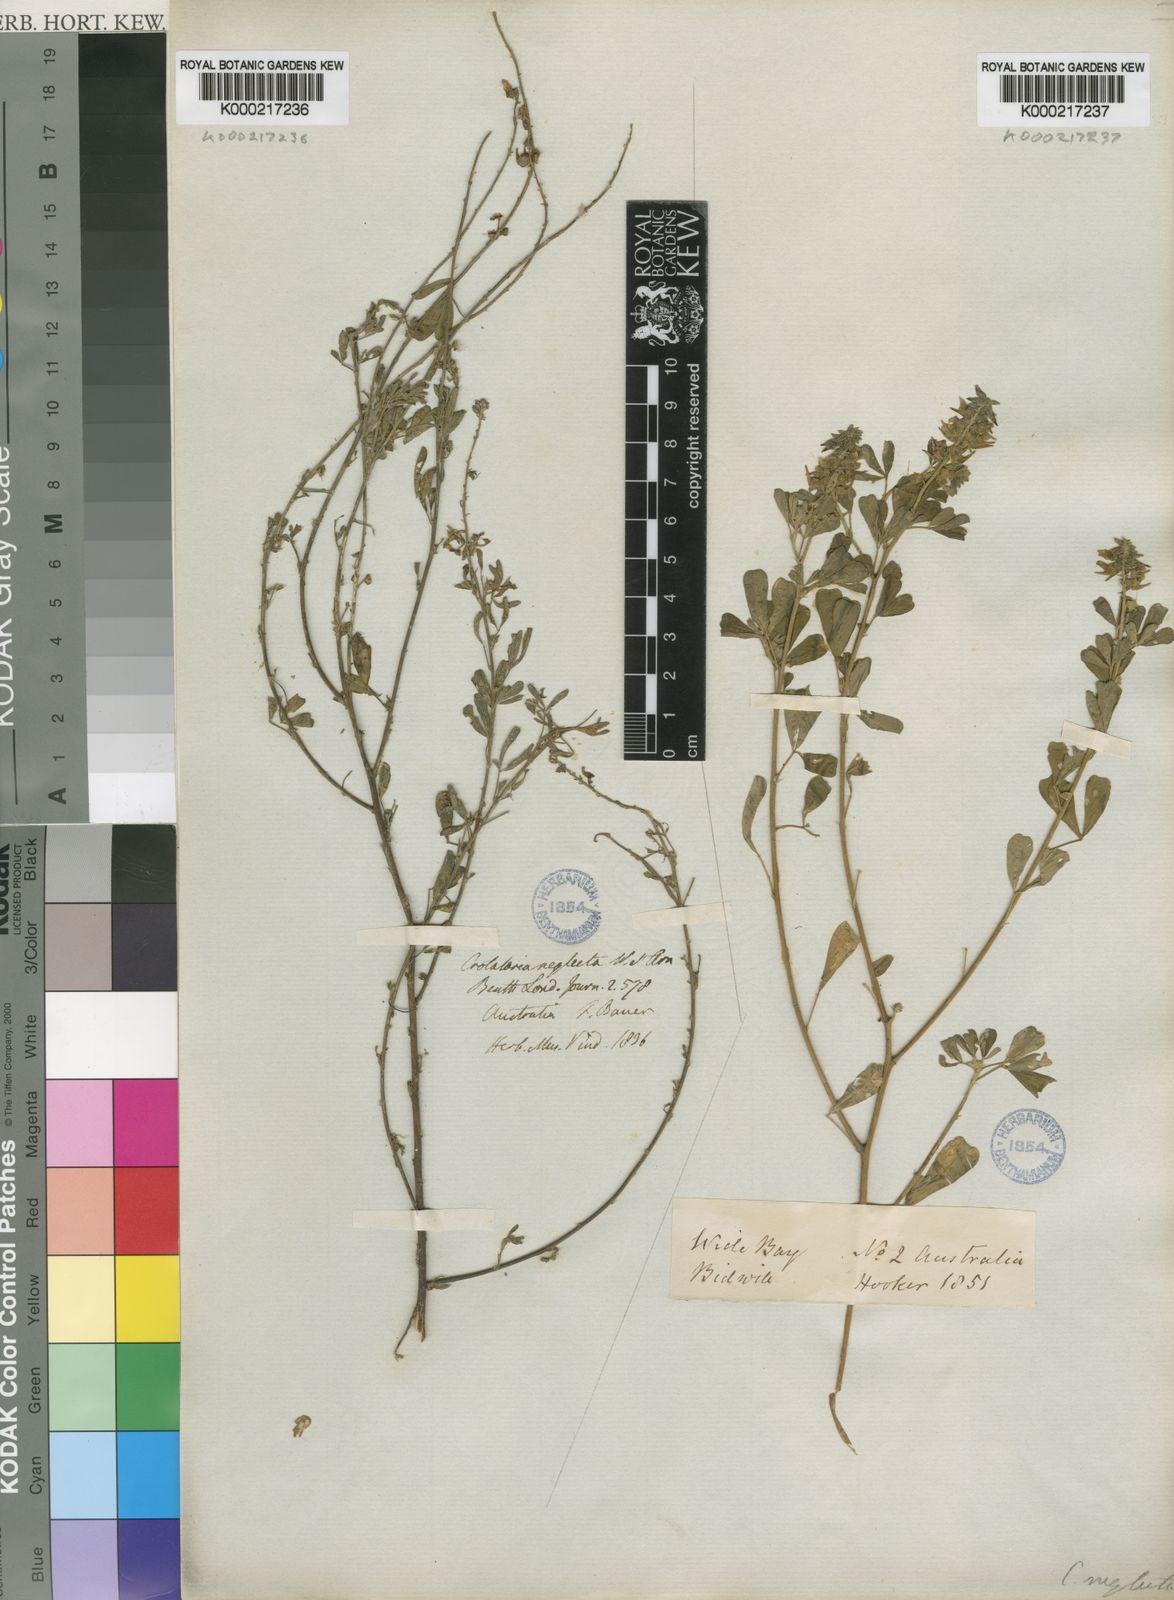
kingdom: Plantae
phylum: Tracheophyta
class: Magnoliopsida
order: Fabales
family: Fabaceae
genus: Crotalaria
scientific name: Crotalaria medicaginea
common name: Trefoil rattlepod
